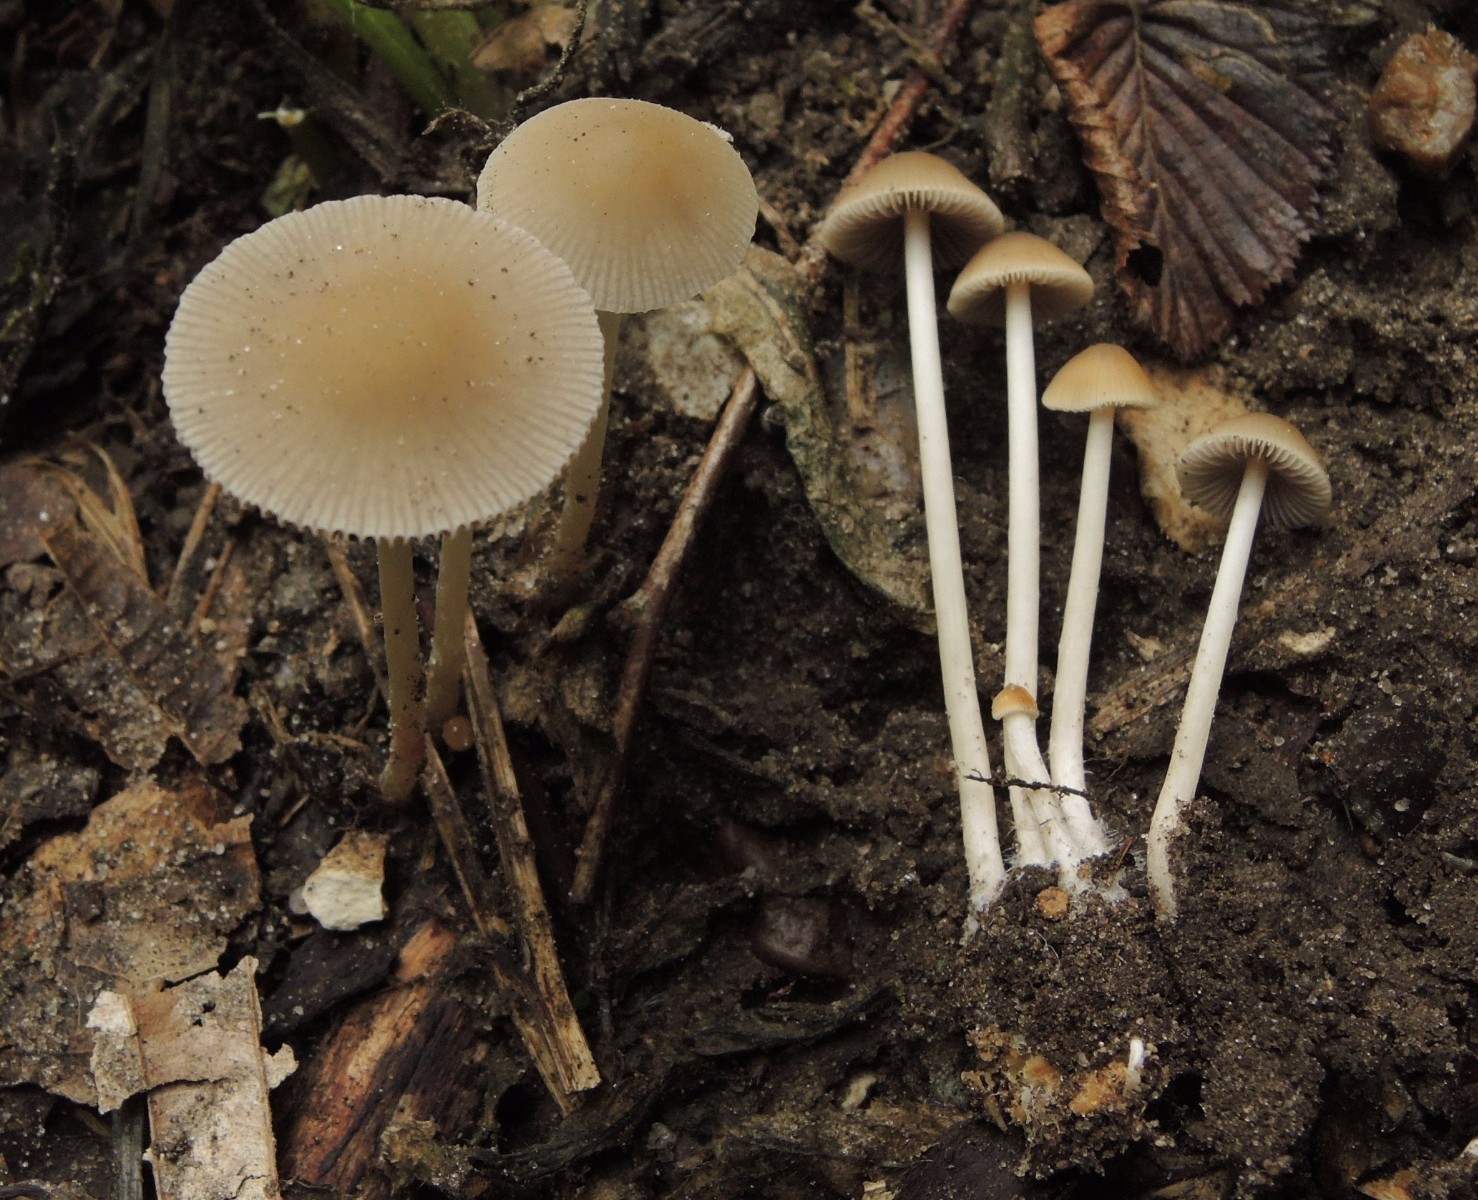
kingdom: Fungi
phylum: Basidiomycota
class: Agaricomycetes
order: Agaricales
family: Psathyrellaceae
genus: Psathyrella
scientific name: Psathyrella pseudogracilis
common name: slank mørkhat
